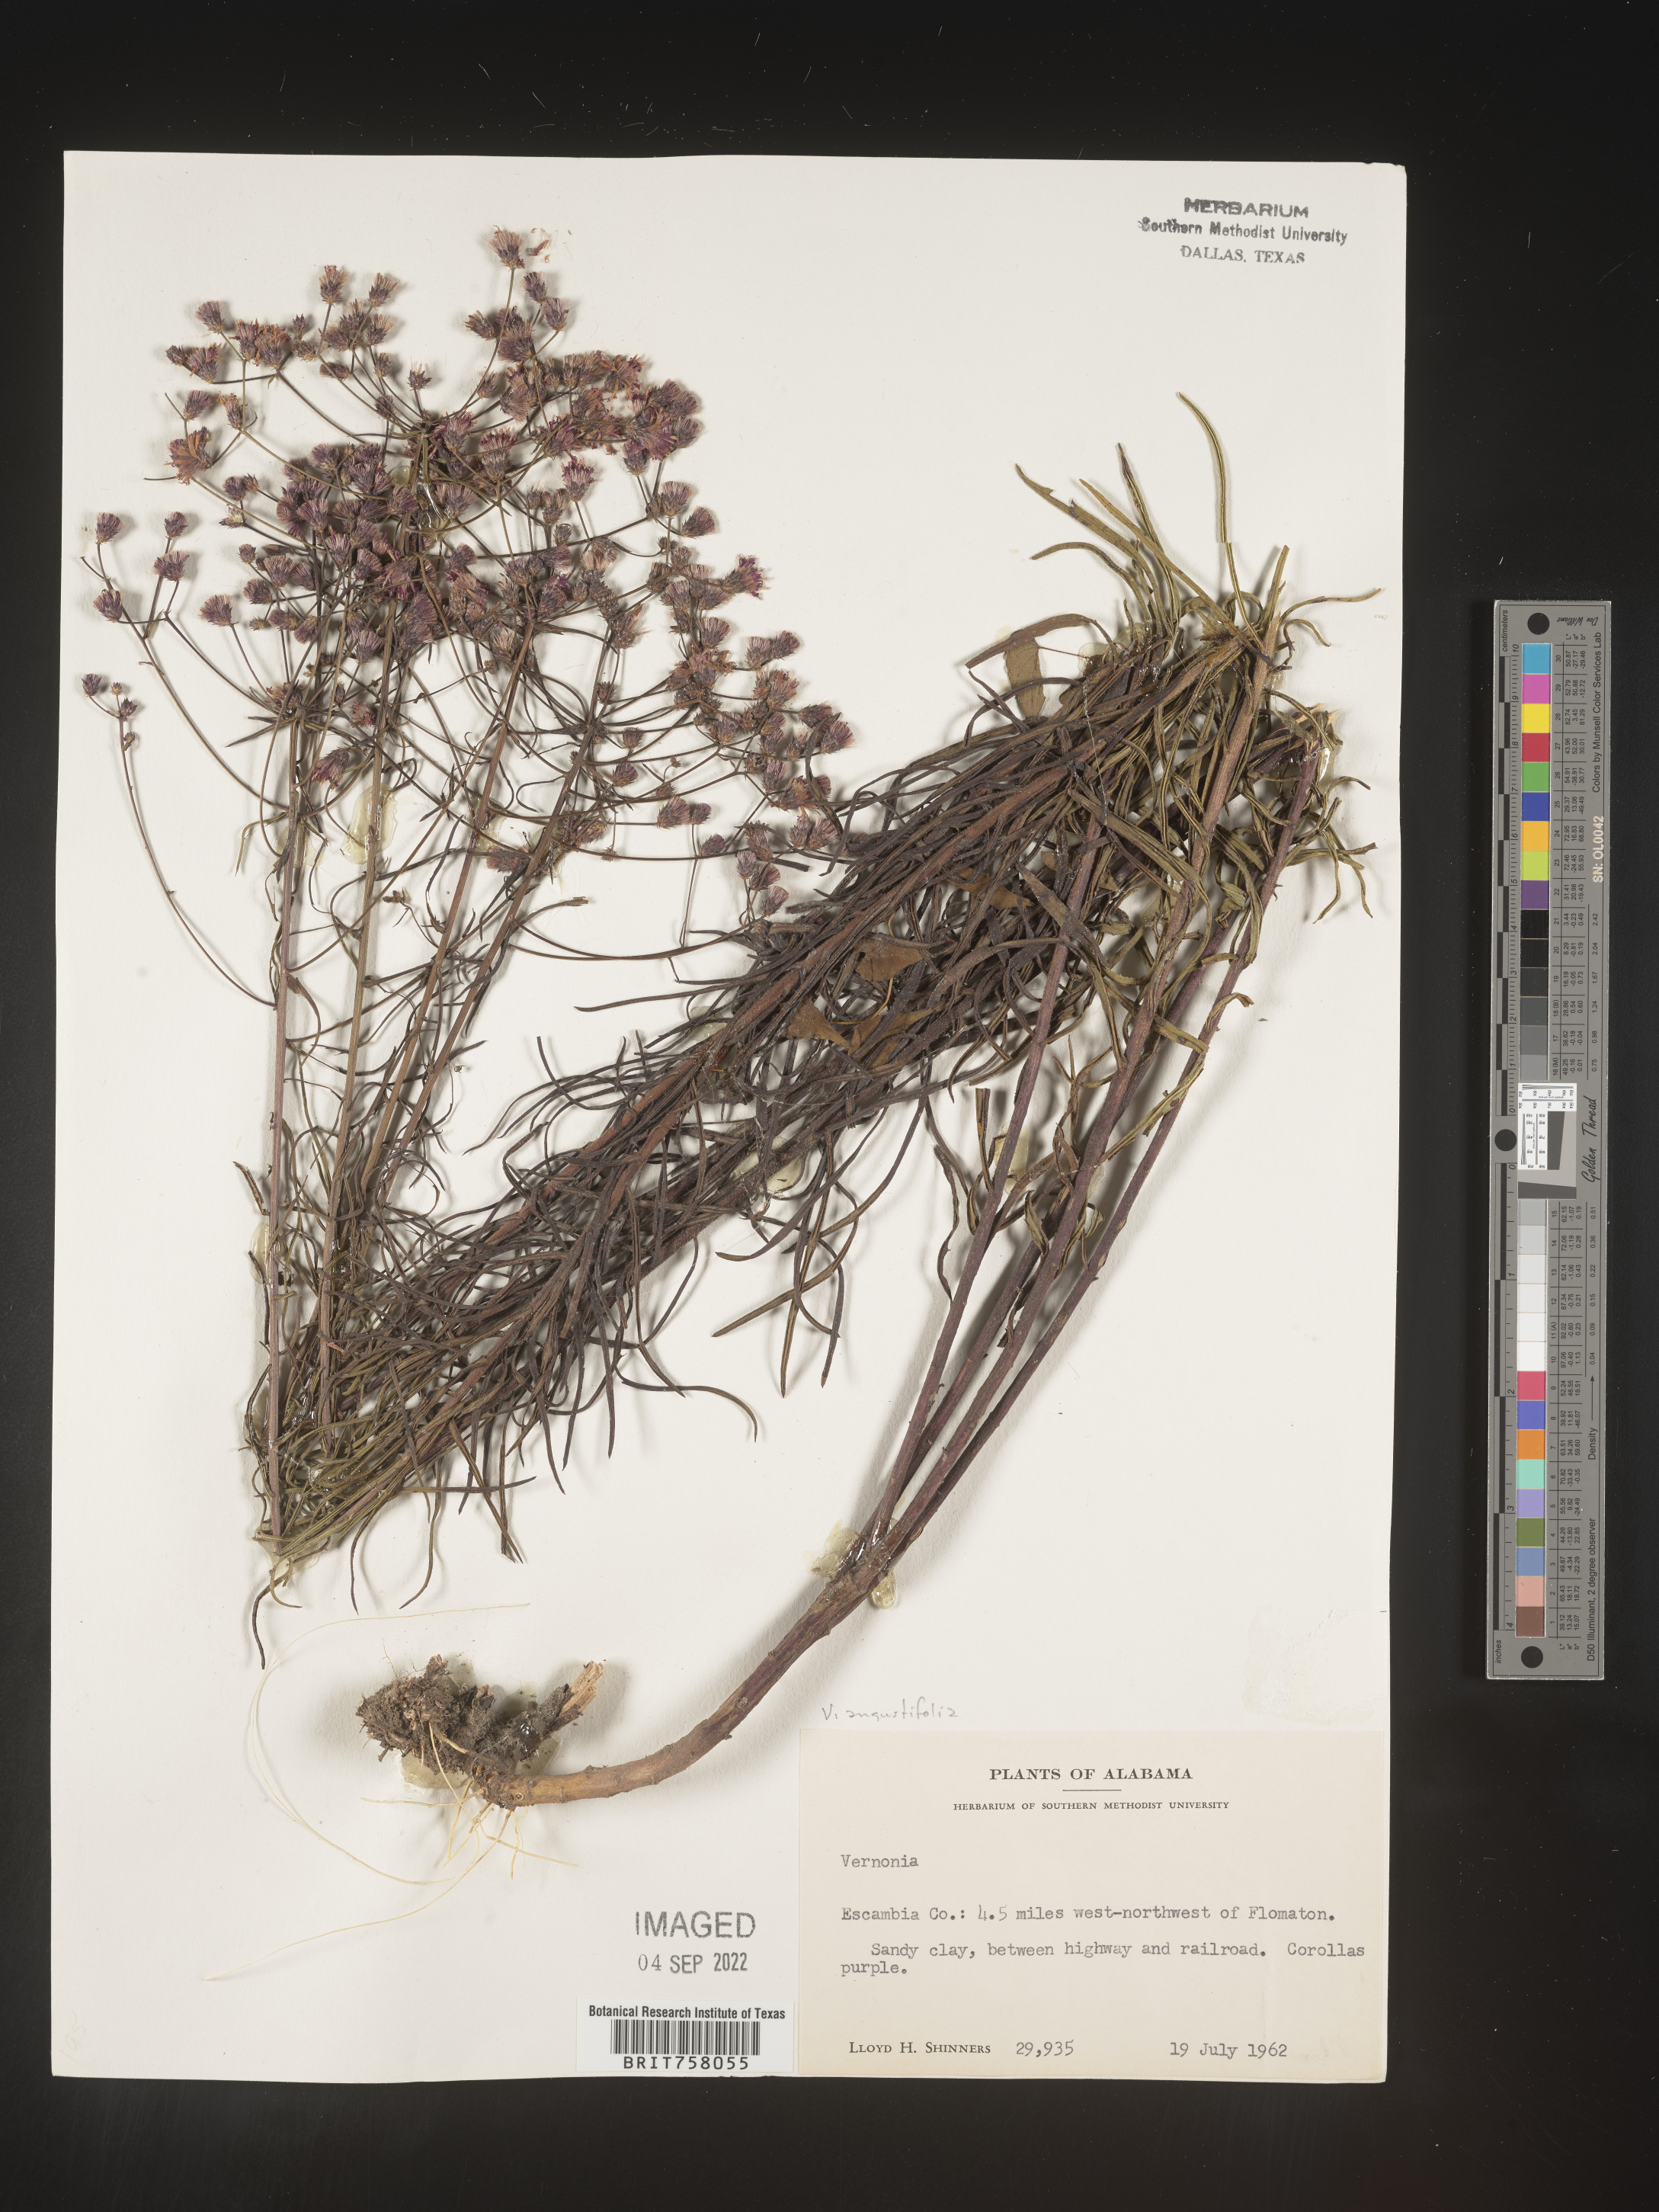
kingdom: Plantae
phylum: Tracheophyta
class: Magnoliopsida
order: Asterales
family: Asteraceae
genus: Vernonia
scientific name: Vernonia angustifolia
